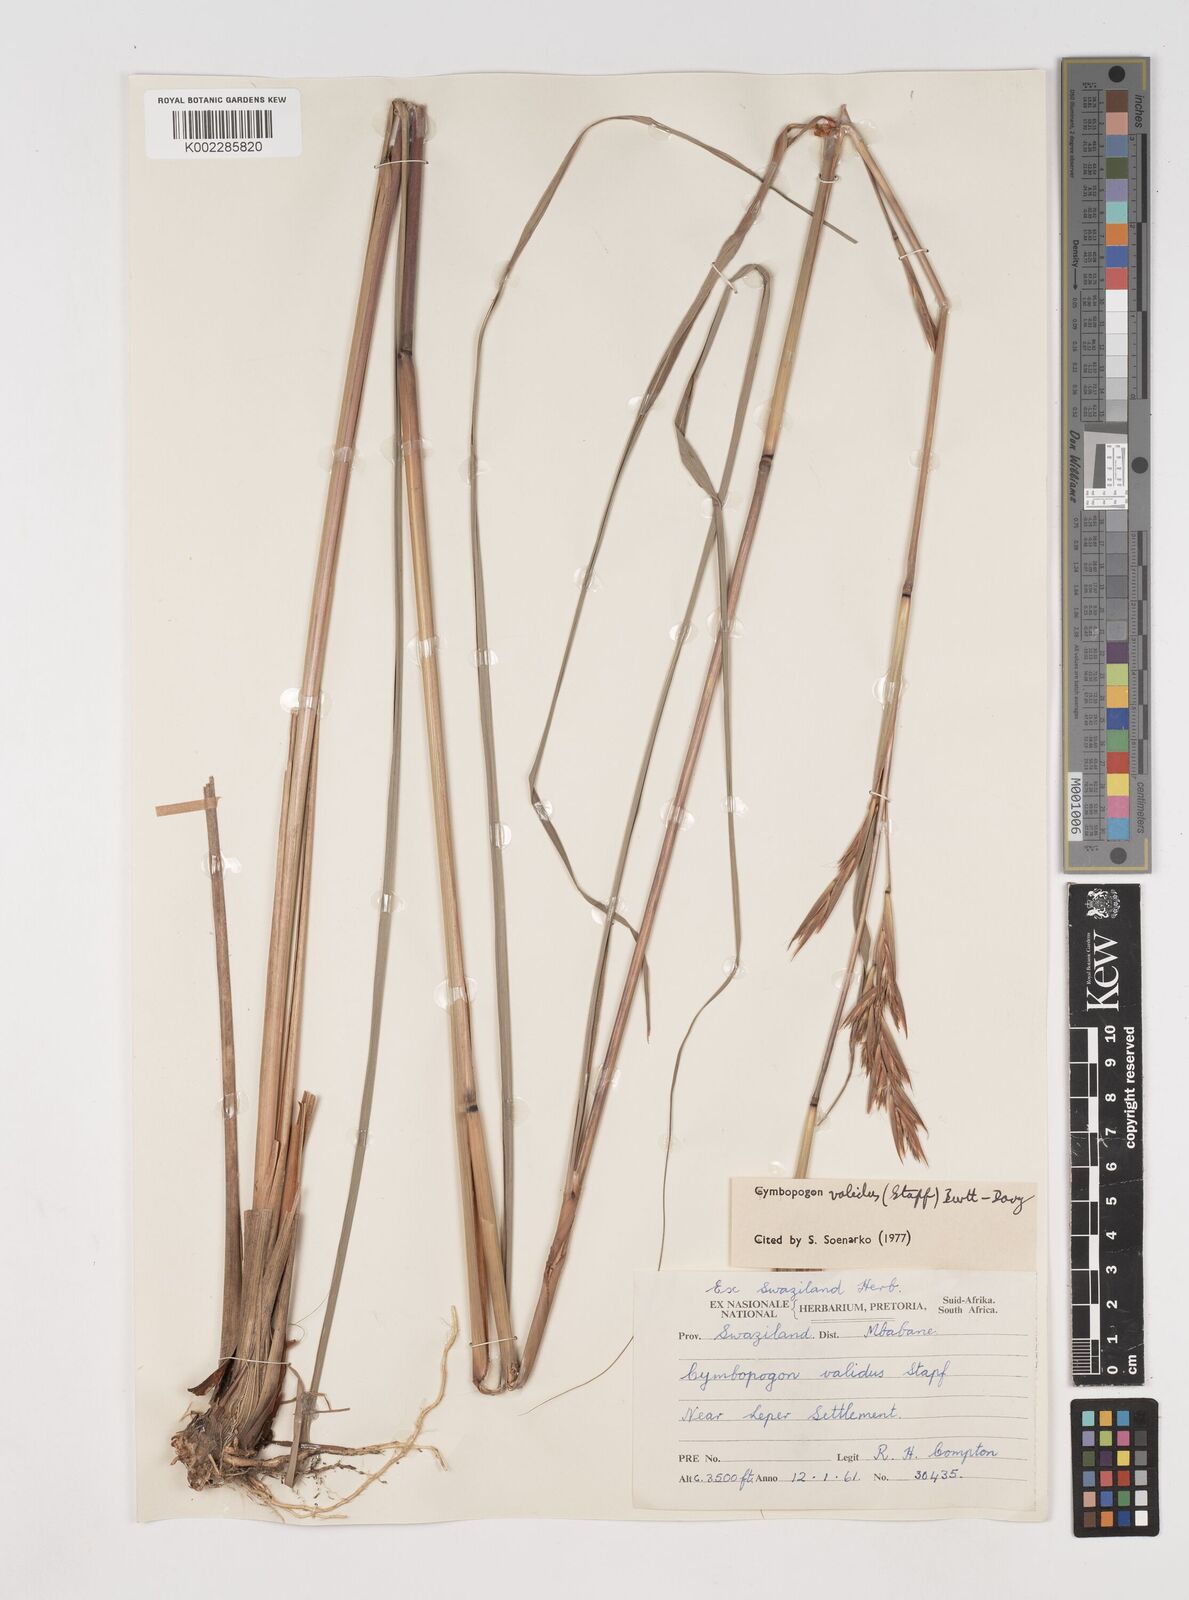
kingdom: Plantae
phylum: Tracheophyta
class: Liliopsida
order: Poales
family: Poaceae
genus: Cymbopogon
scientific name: Cymbopogon nardus
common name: Giant turpentine grass
